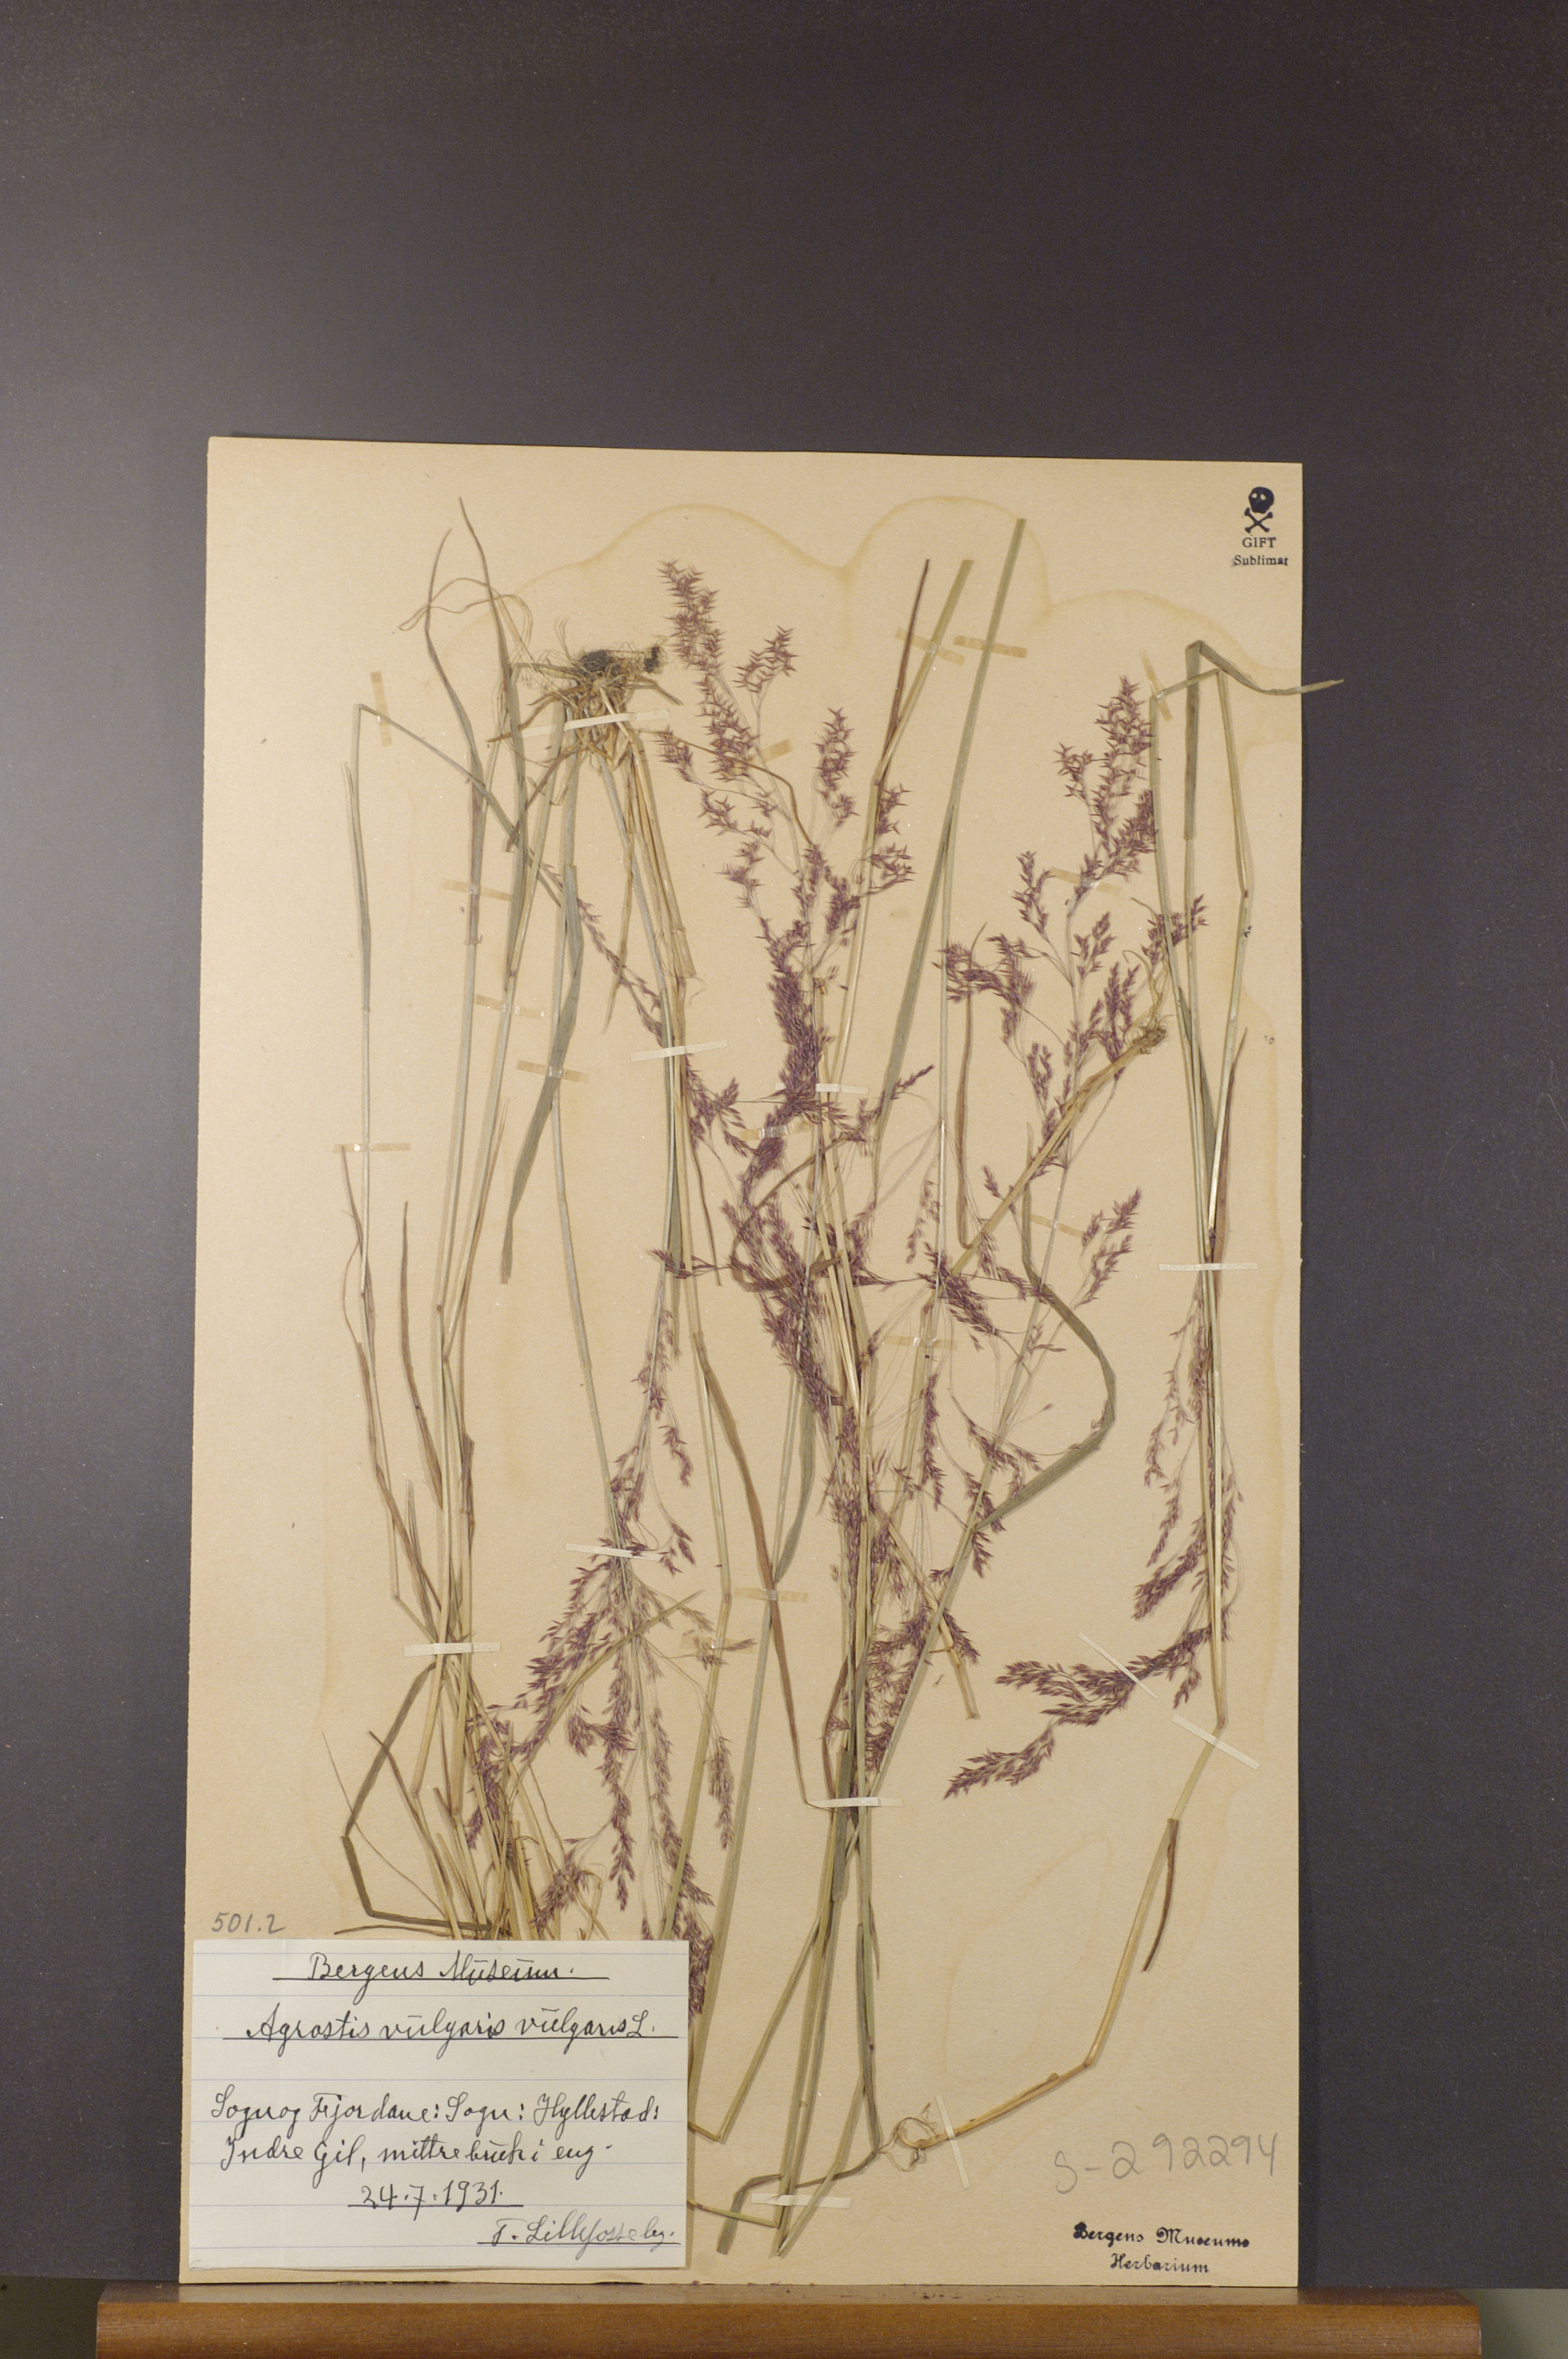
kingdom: Plantae
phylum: Tracheophyta
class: Liliopsida
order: Poales
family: Poaceae
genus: Agrostis
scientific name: Agrostis capillaris
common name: Colonial bentgrass
